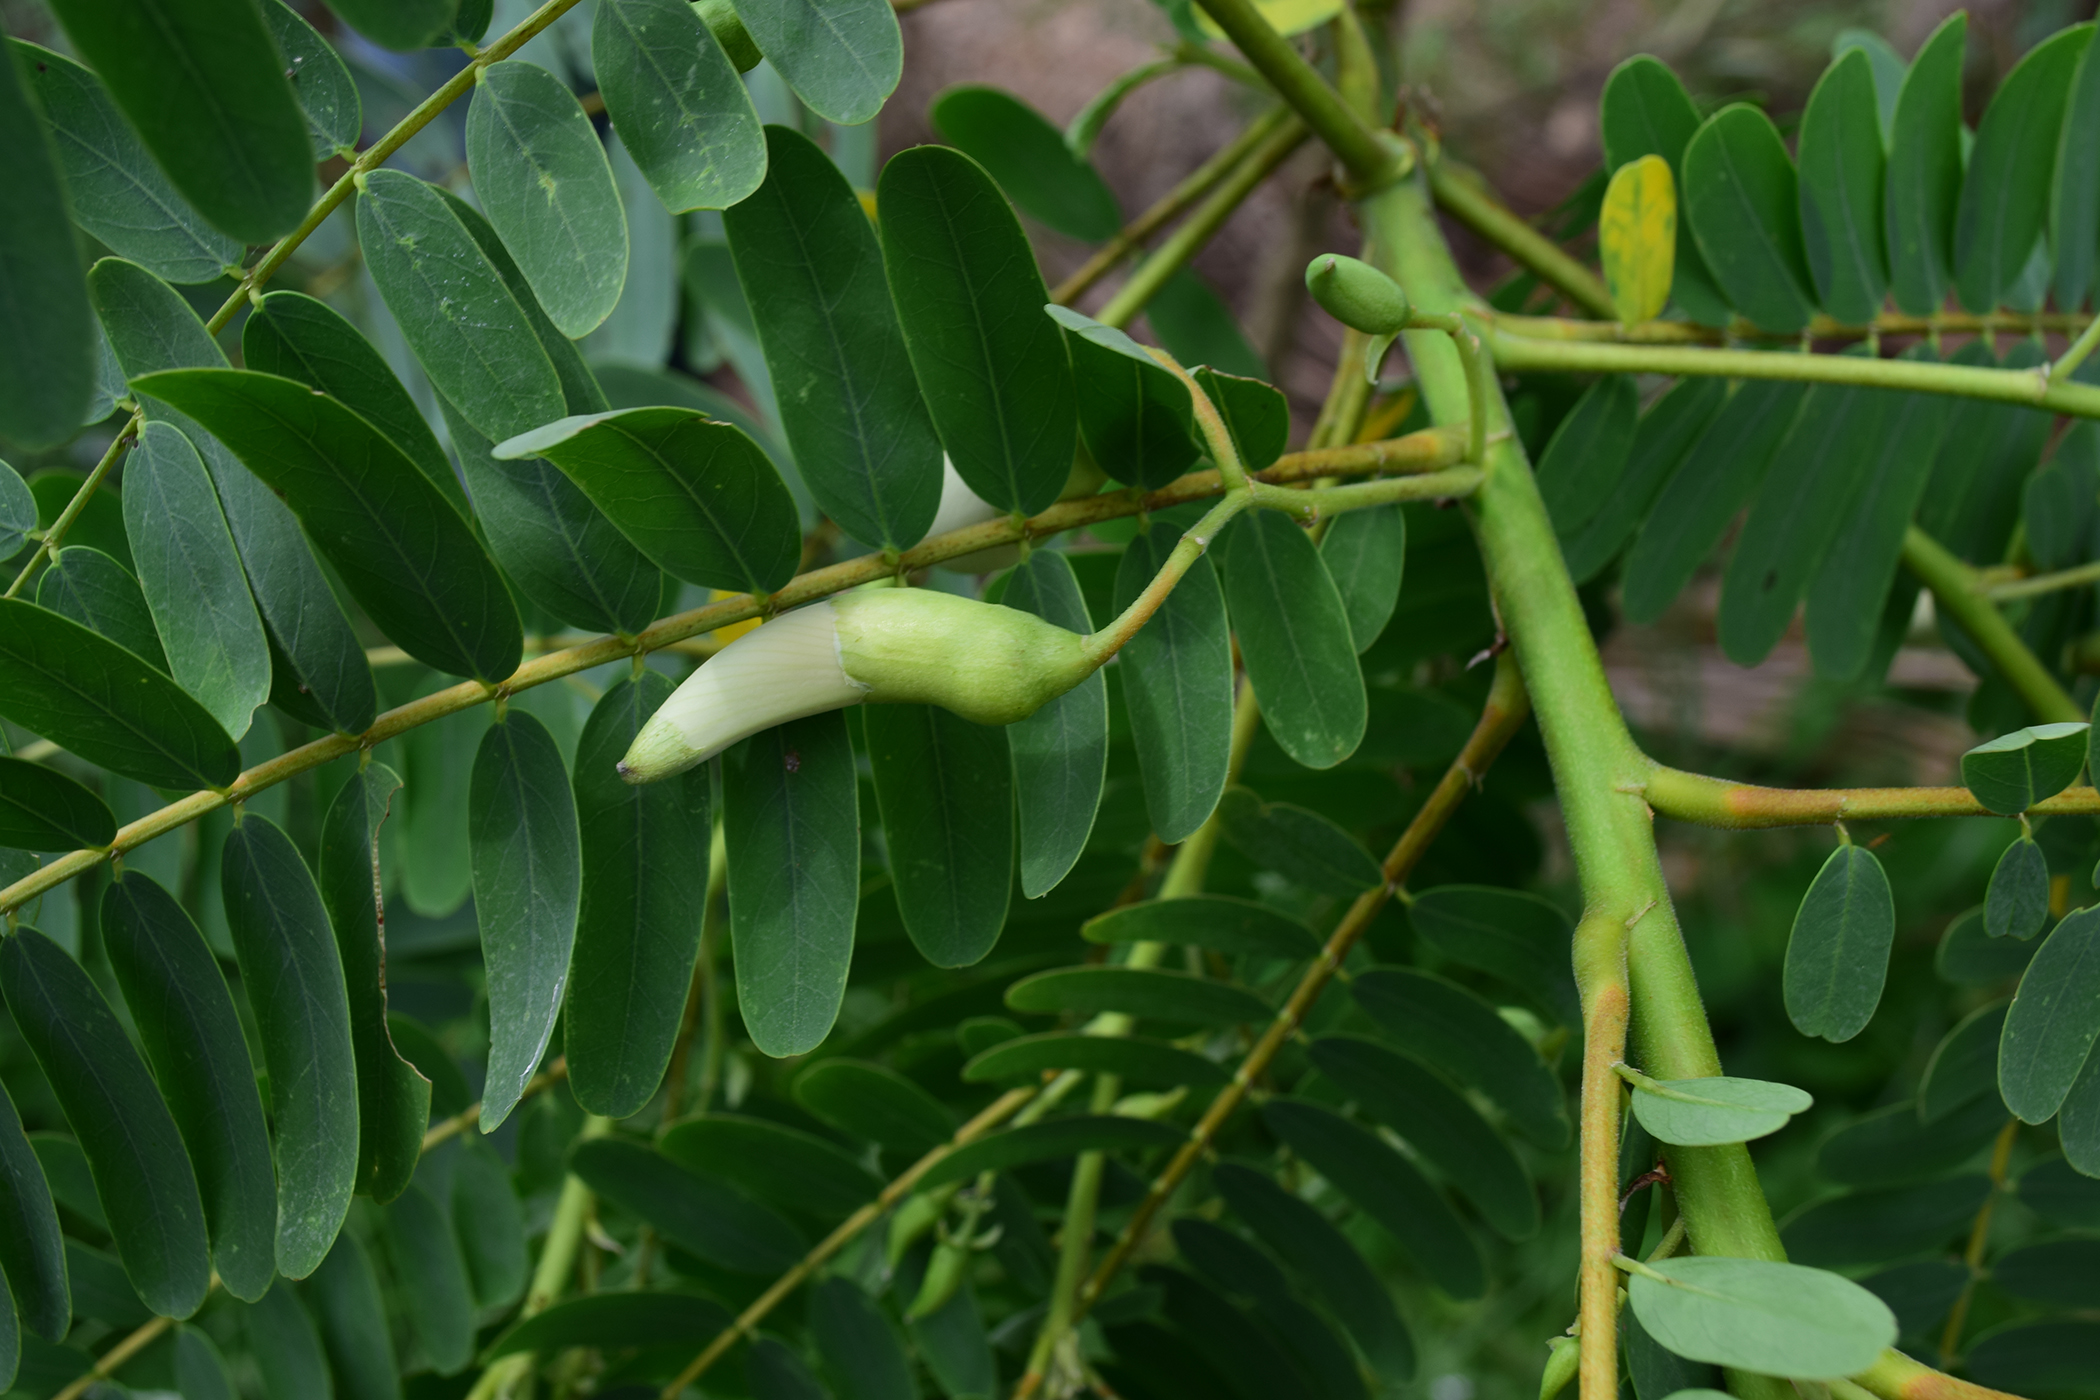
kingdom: Plantae
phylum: Tracheophyta
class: Magnoliopsida
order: Fabales
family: Fabaceae
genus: Sesbania
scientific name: Sesbania grandiflora
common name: Vegetable-hummingbird
